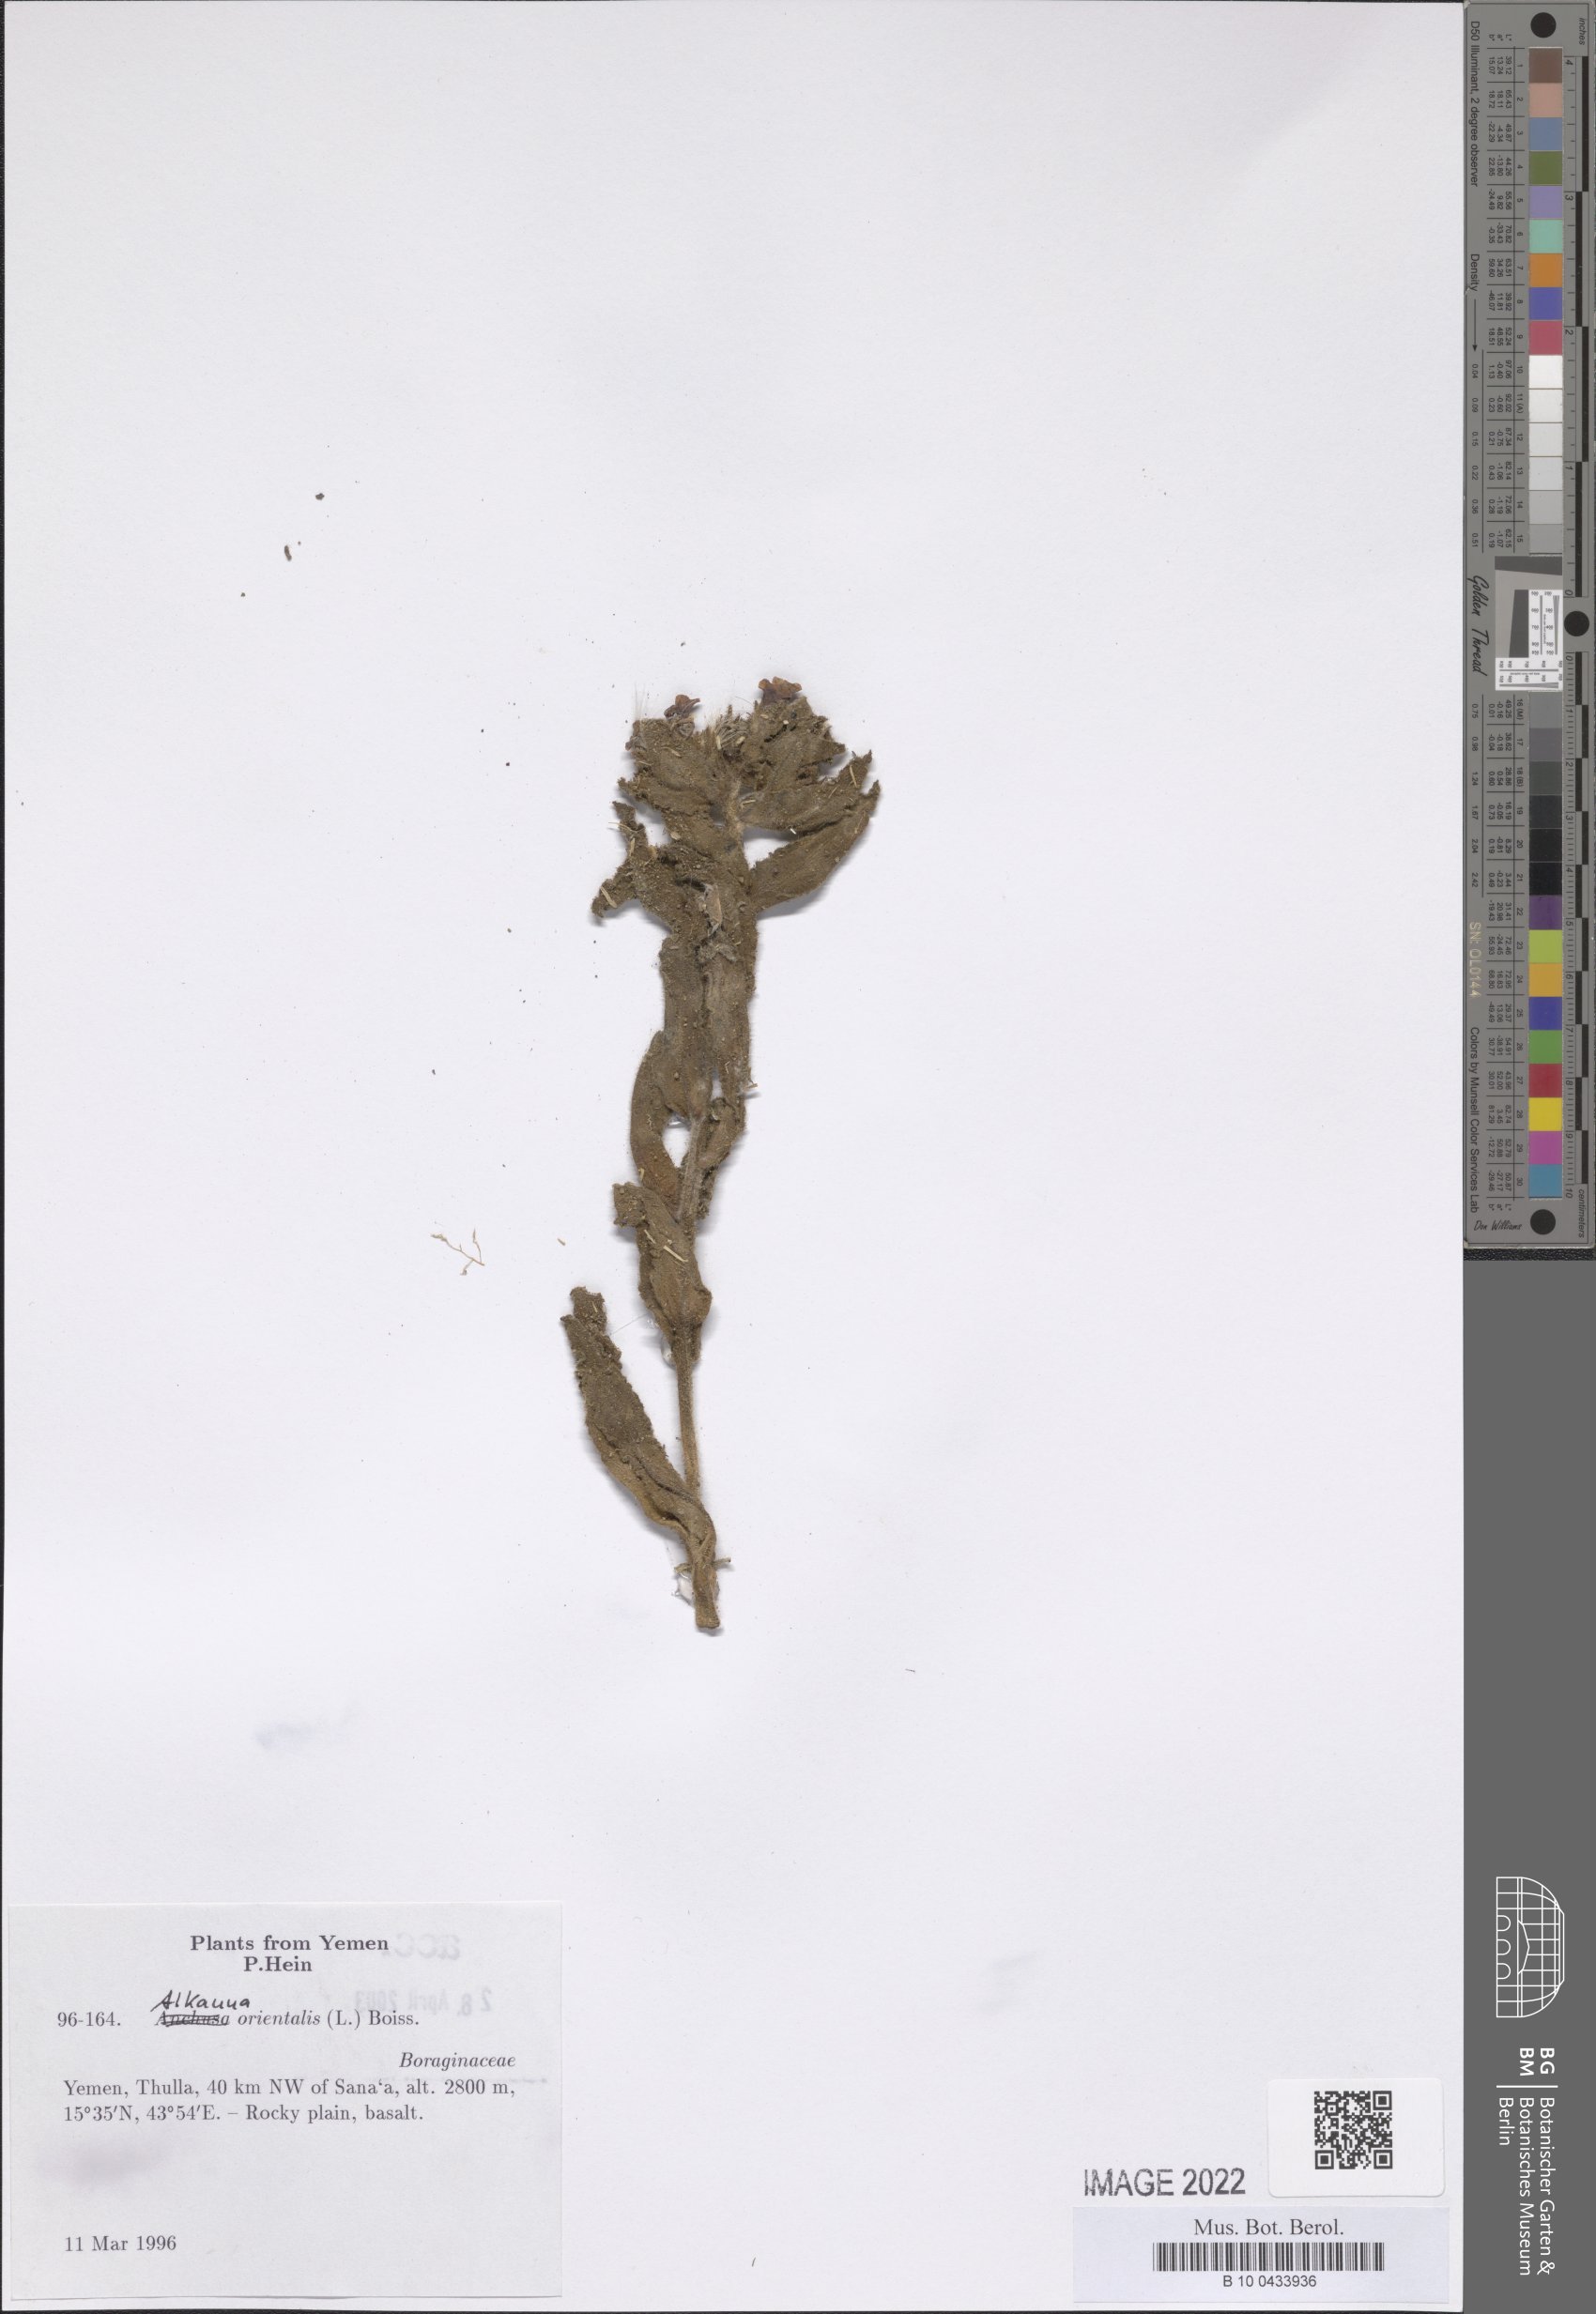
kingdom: Plantae
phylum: Tracheophyta
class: Magnoliopsida
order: Boraginales
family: Boraginaceae
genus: Alkanna
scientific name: Alkanna orientalis
